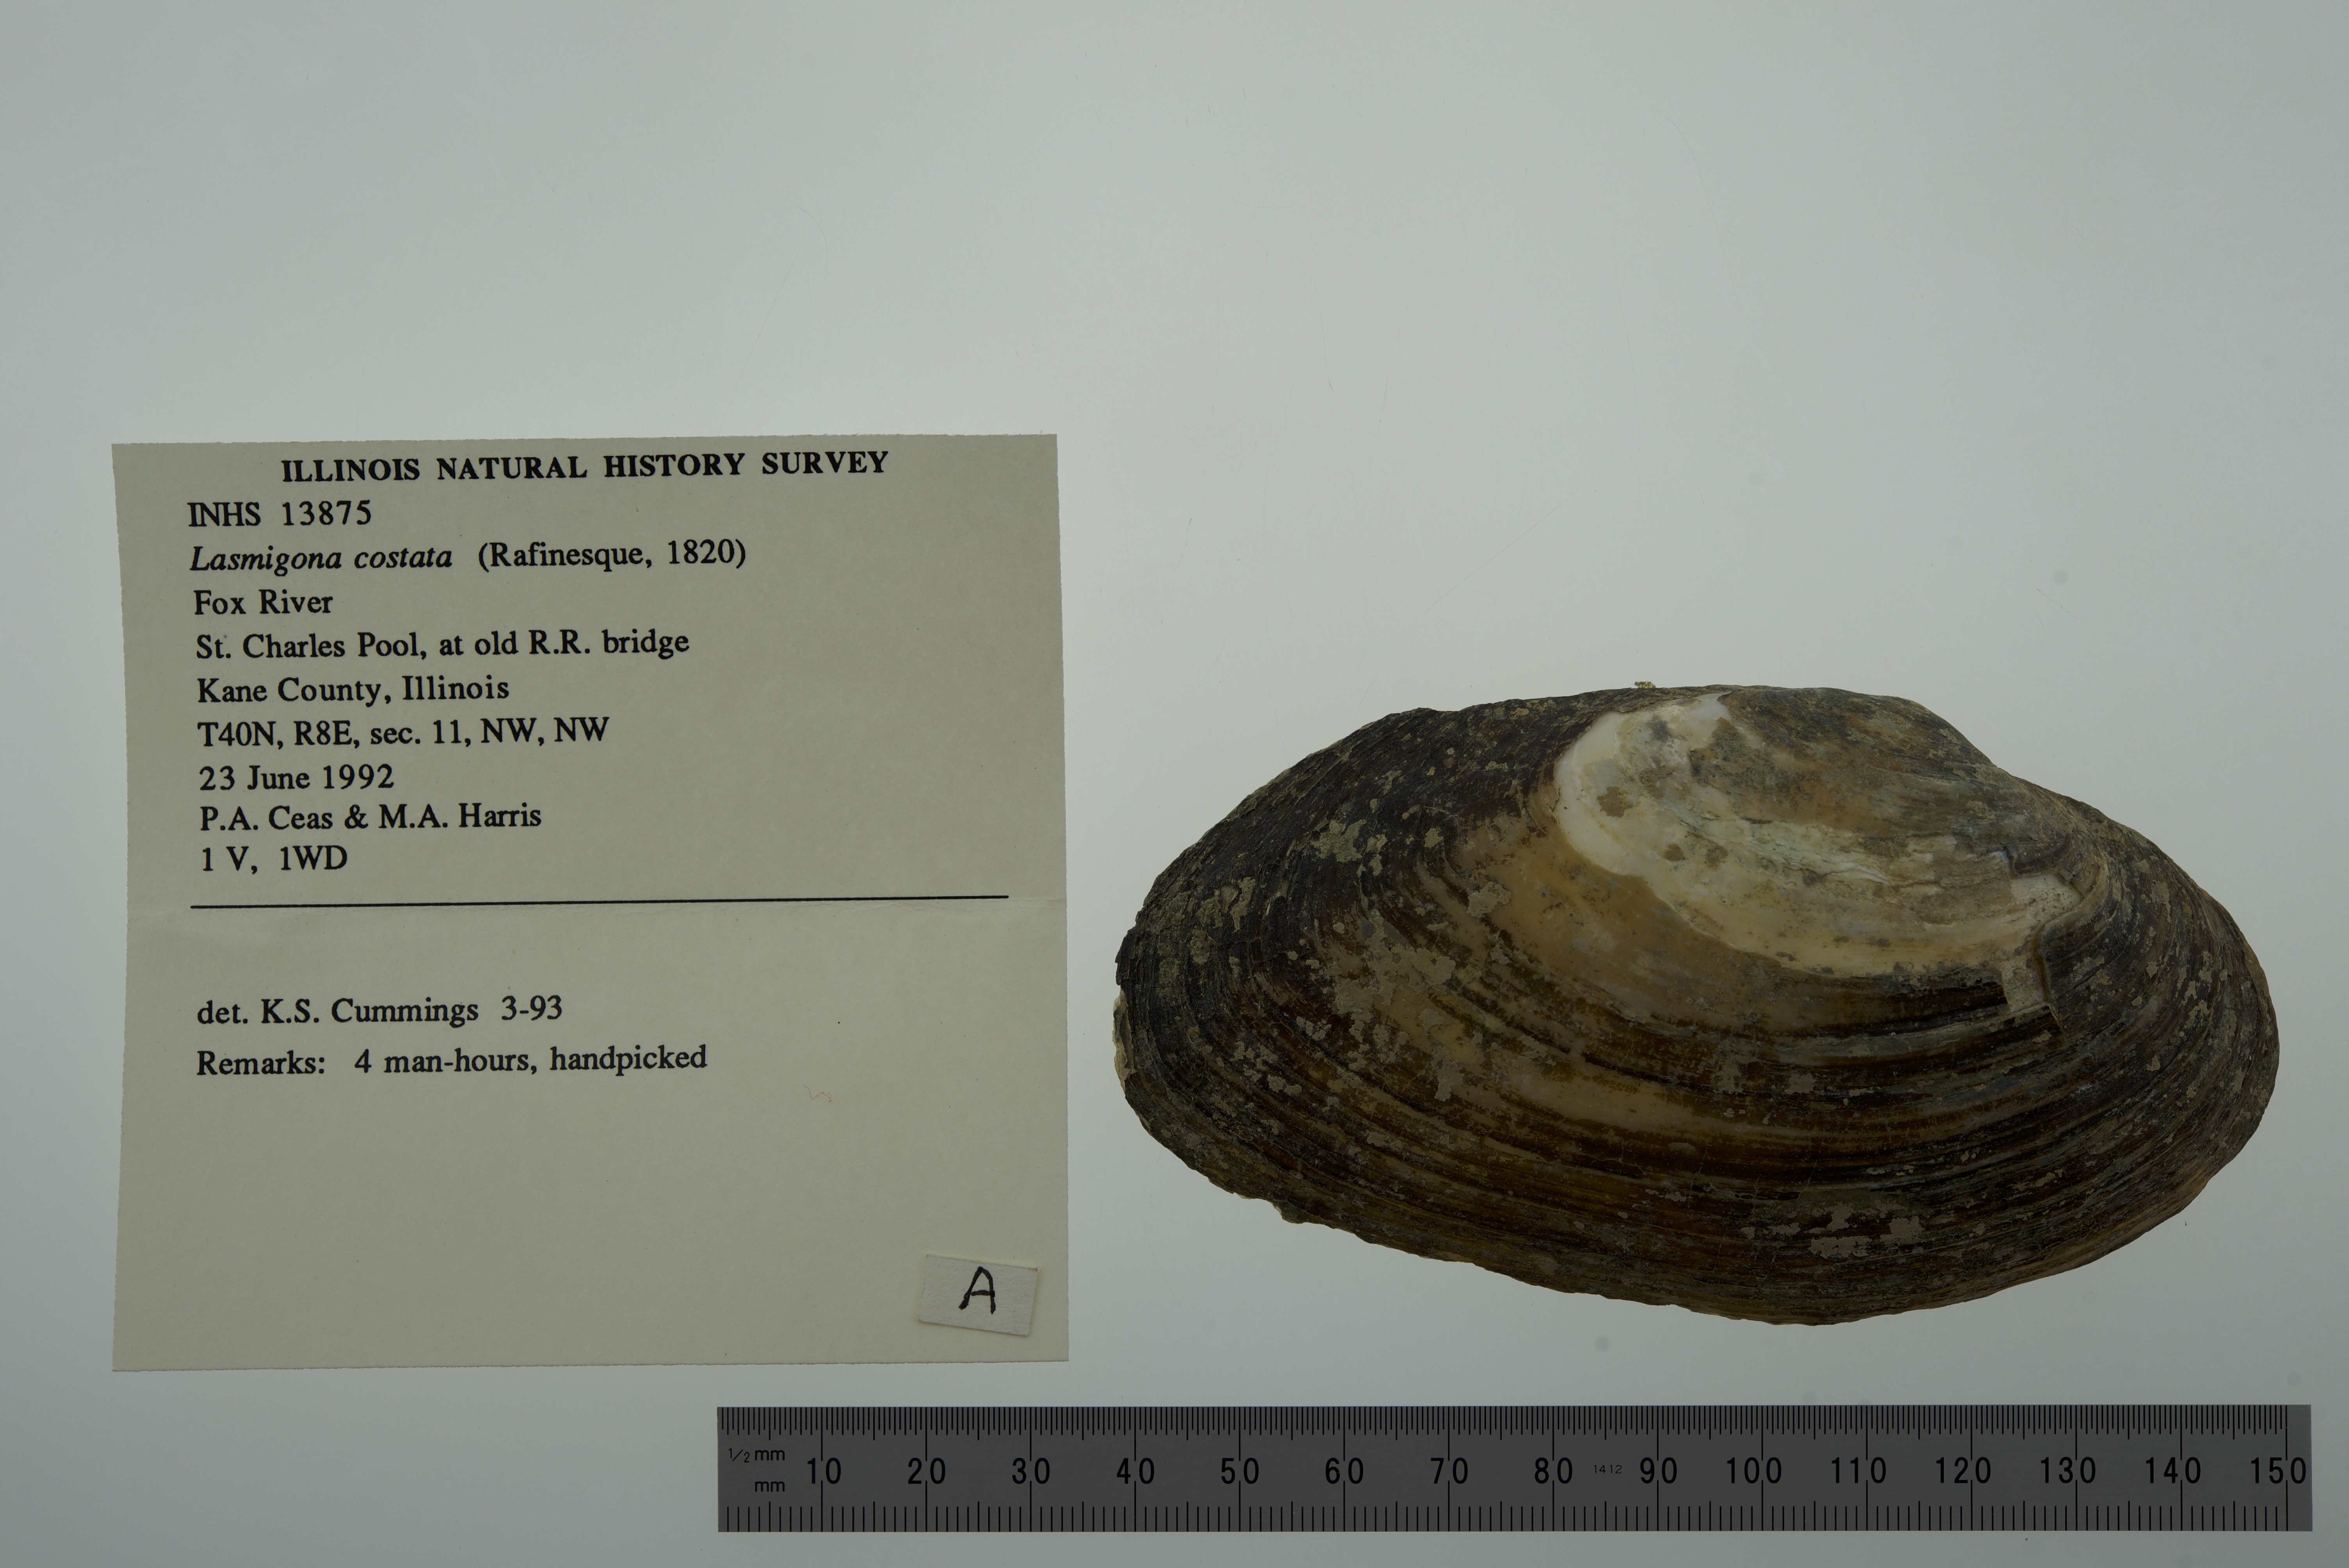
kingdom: Animalia
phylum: Mollusca
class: Bivalvia
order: Unionida
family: Unionidae
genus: Lasmigona
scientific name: Lasmigona costata
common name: Flutedshell
